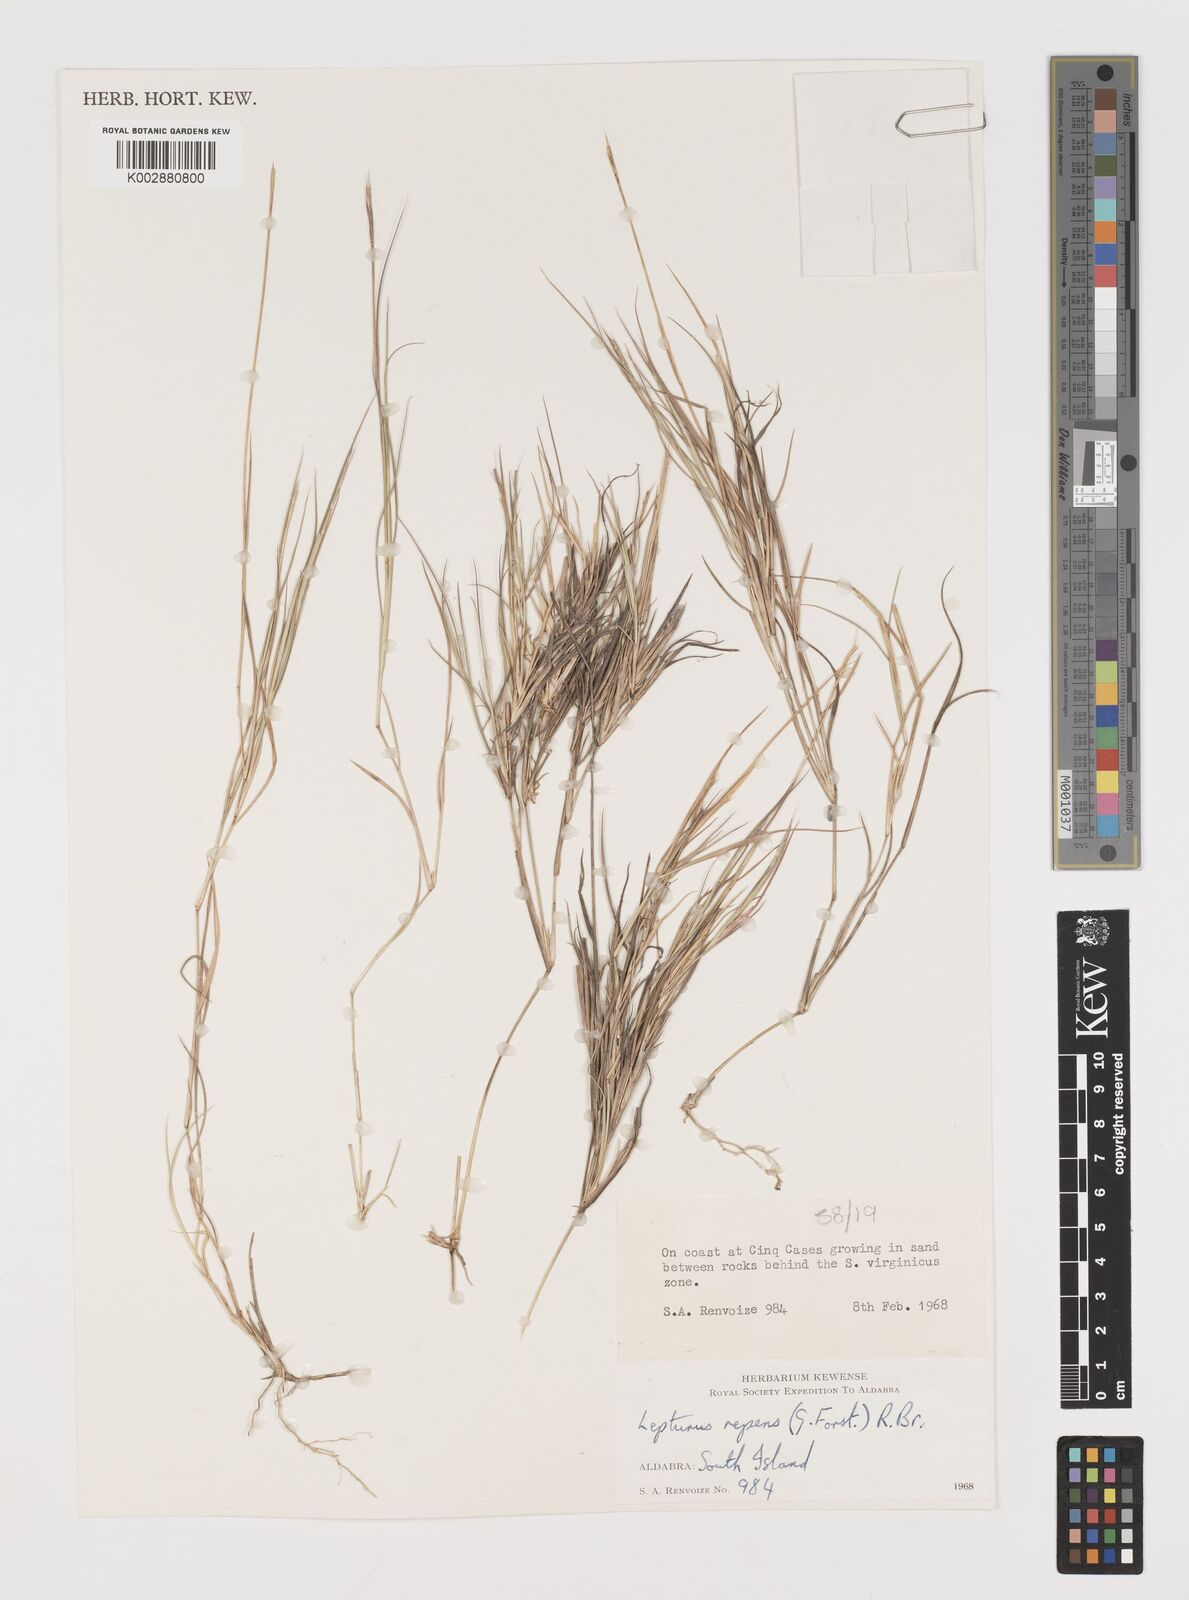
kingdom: Plantae
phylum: Tracheophyta
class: Liliopsida
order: Poales
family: Poaceae
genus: Lepturus
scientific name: Lepturus repens
